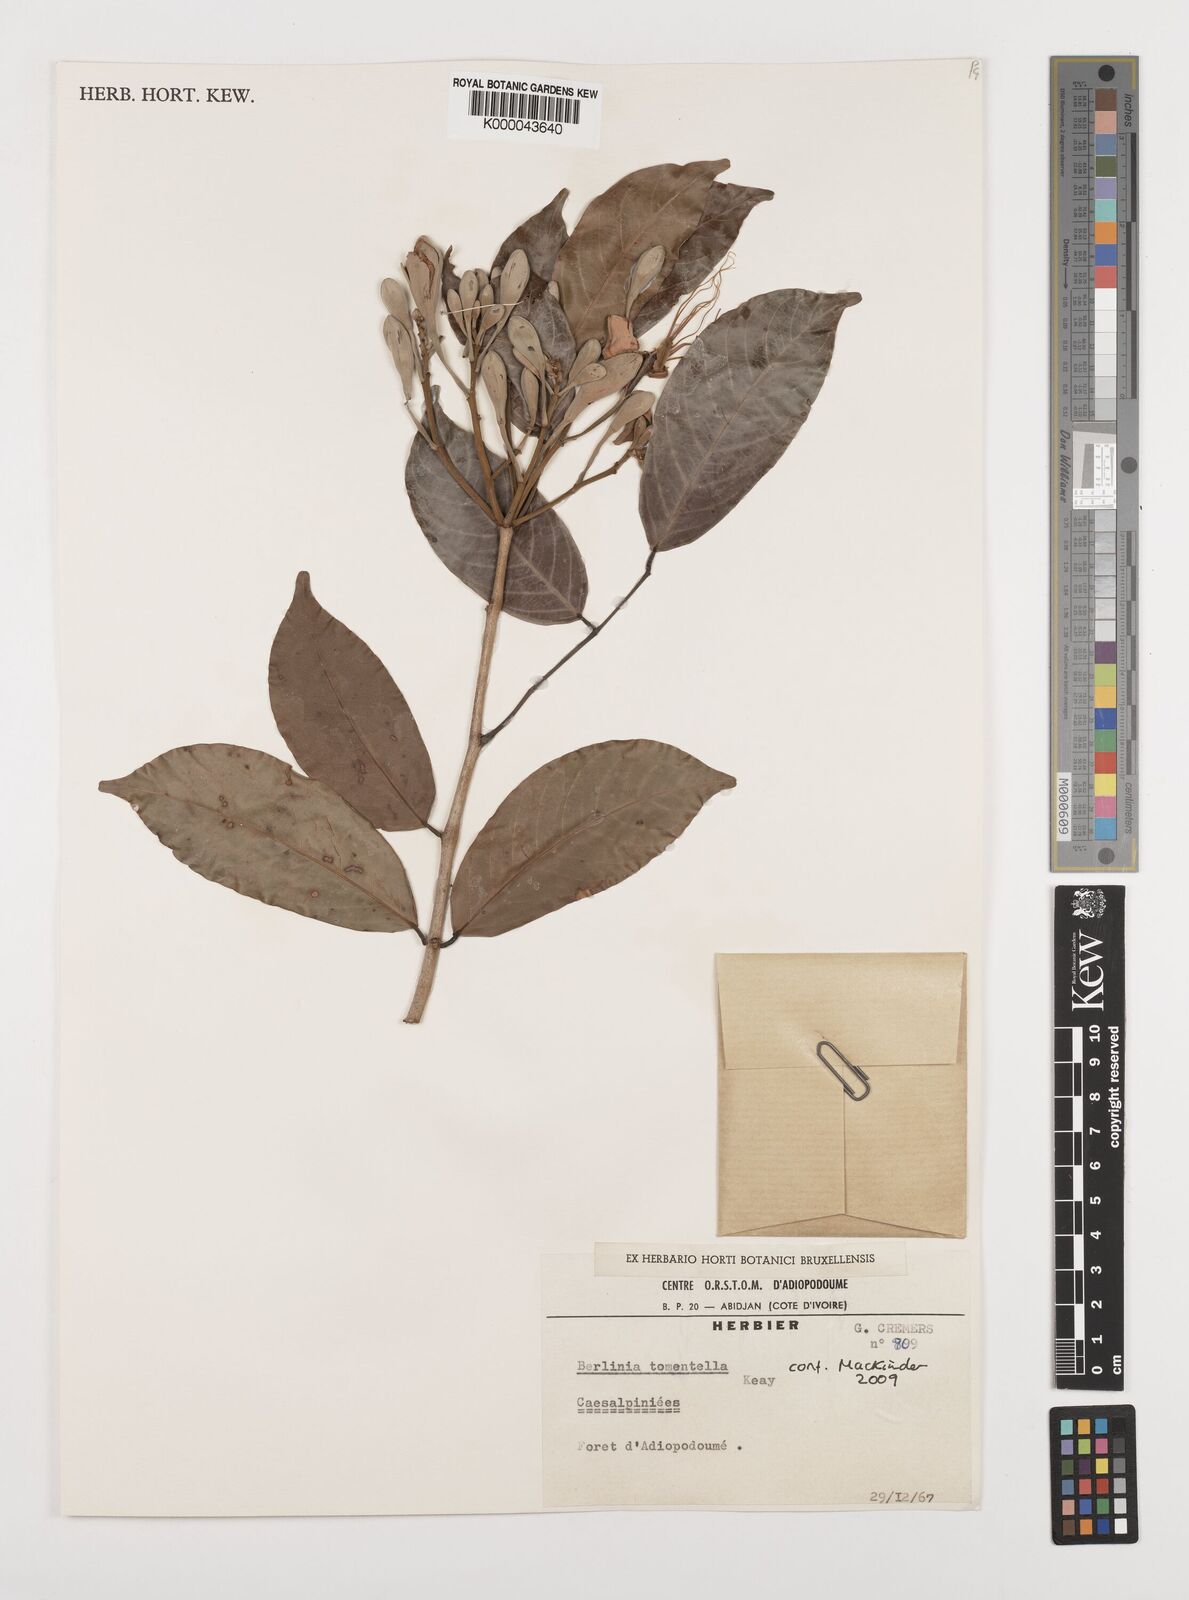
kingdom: Plantae
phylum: Tracheophyta
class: Magnoliopsida
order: Fabales
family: Fabaceae
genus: Berlinia
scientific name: Berlinia tomentella
